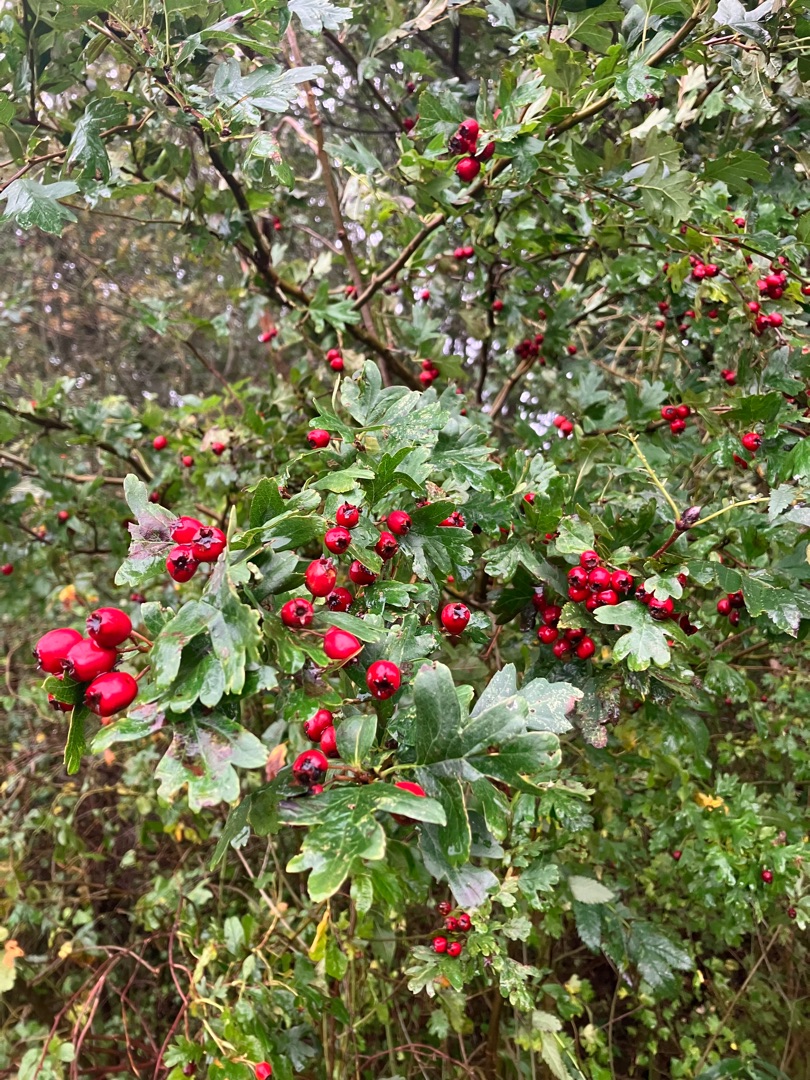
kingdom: Plantae
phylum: Tracheophyta
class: Magnoliopsida
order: Rosales
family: Rosaceae
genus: Crataegus
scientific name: Crataegus monogyna
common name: Engriflet hvidtjørn
